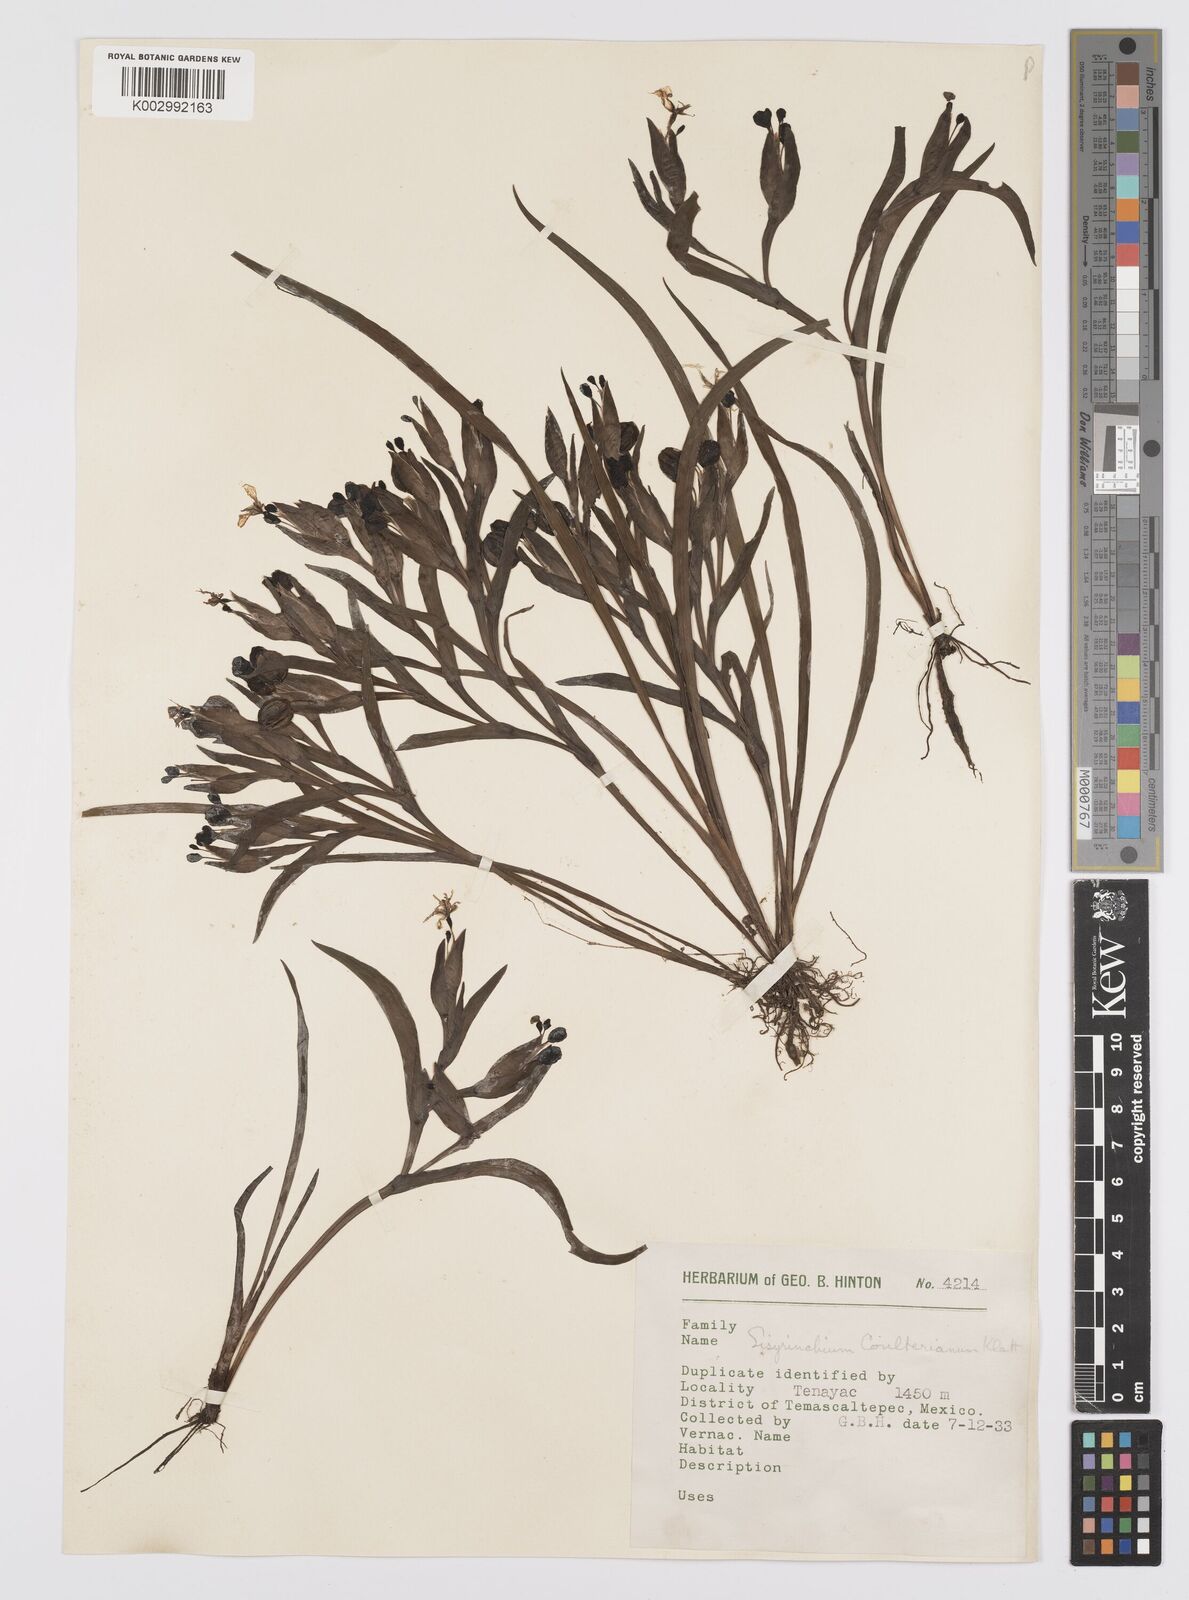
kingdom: Plantae
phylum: Tracheophyta
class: Liliopsida
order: Asparagales
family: Iridaceae
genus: Sisyrinchium
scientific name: Sisyrinchium coulterianum
